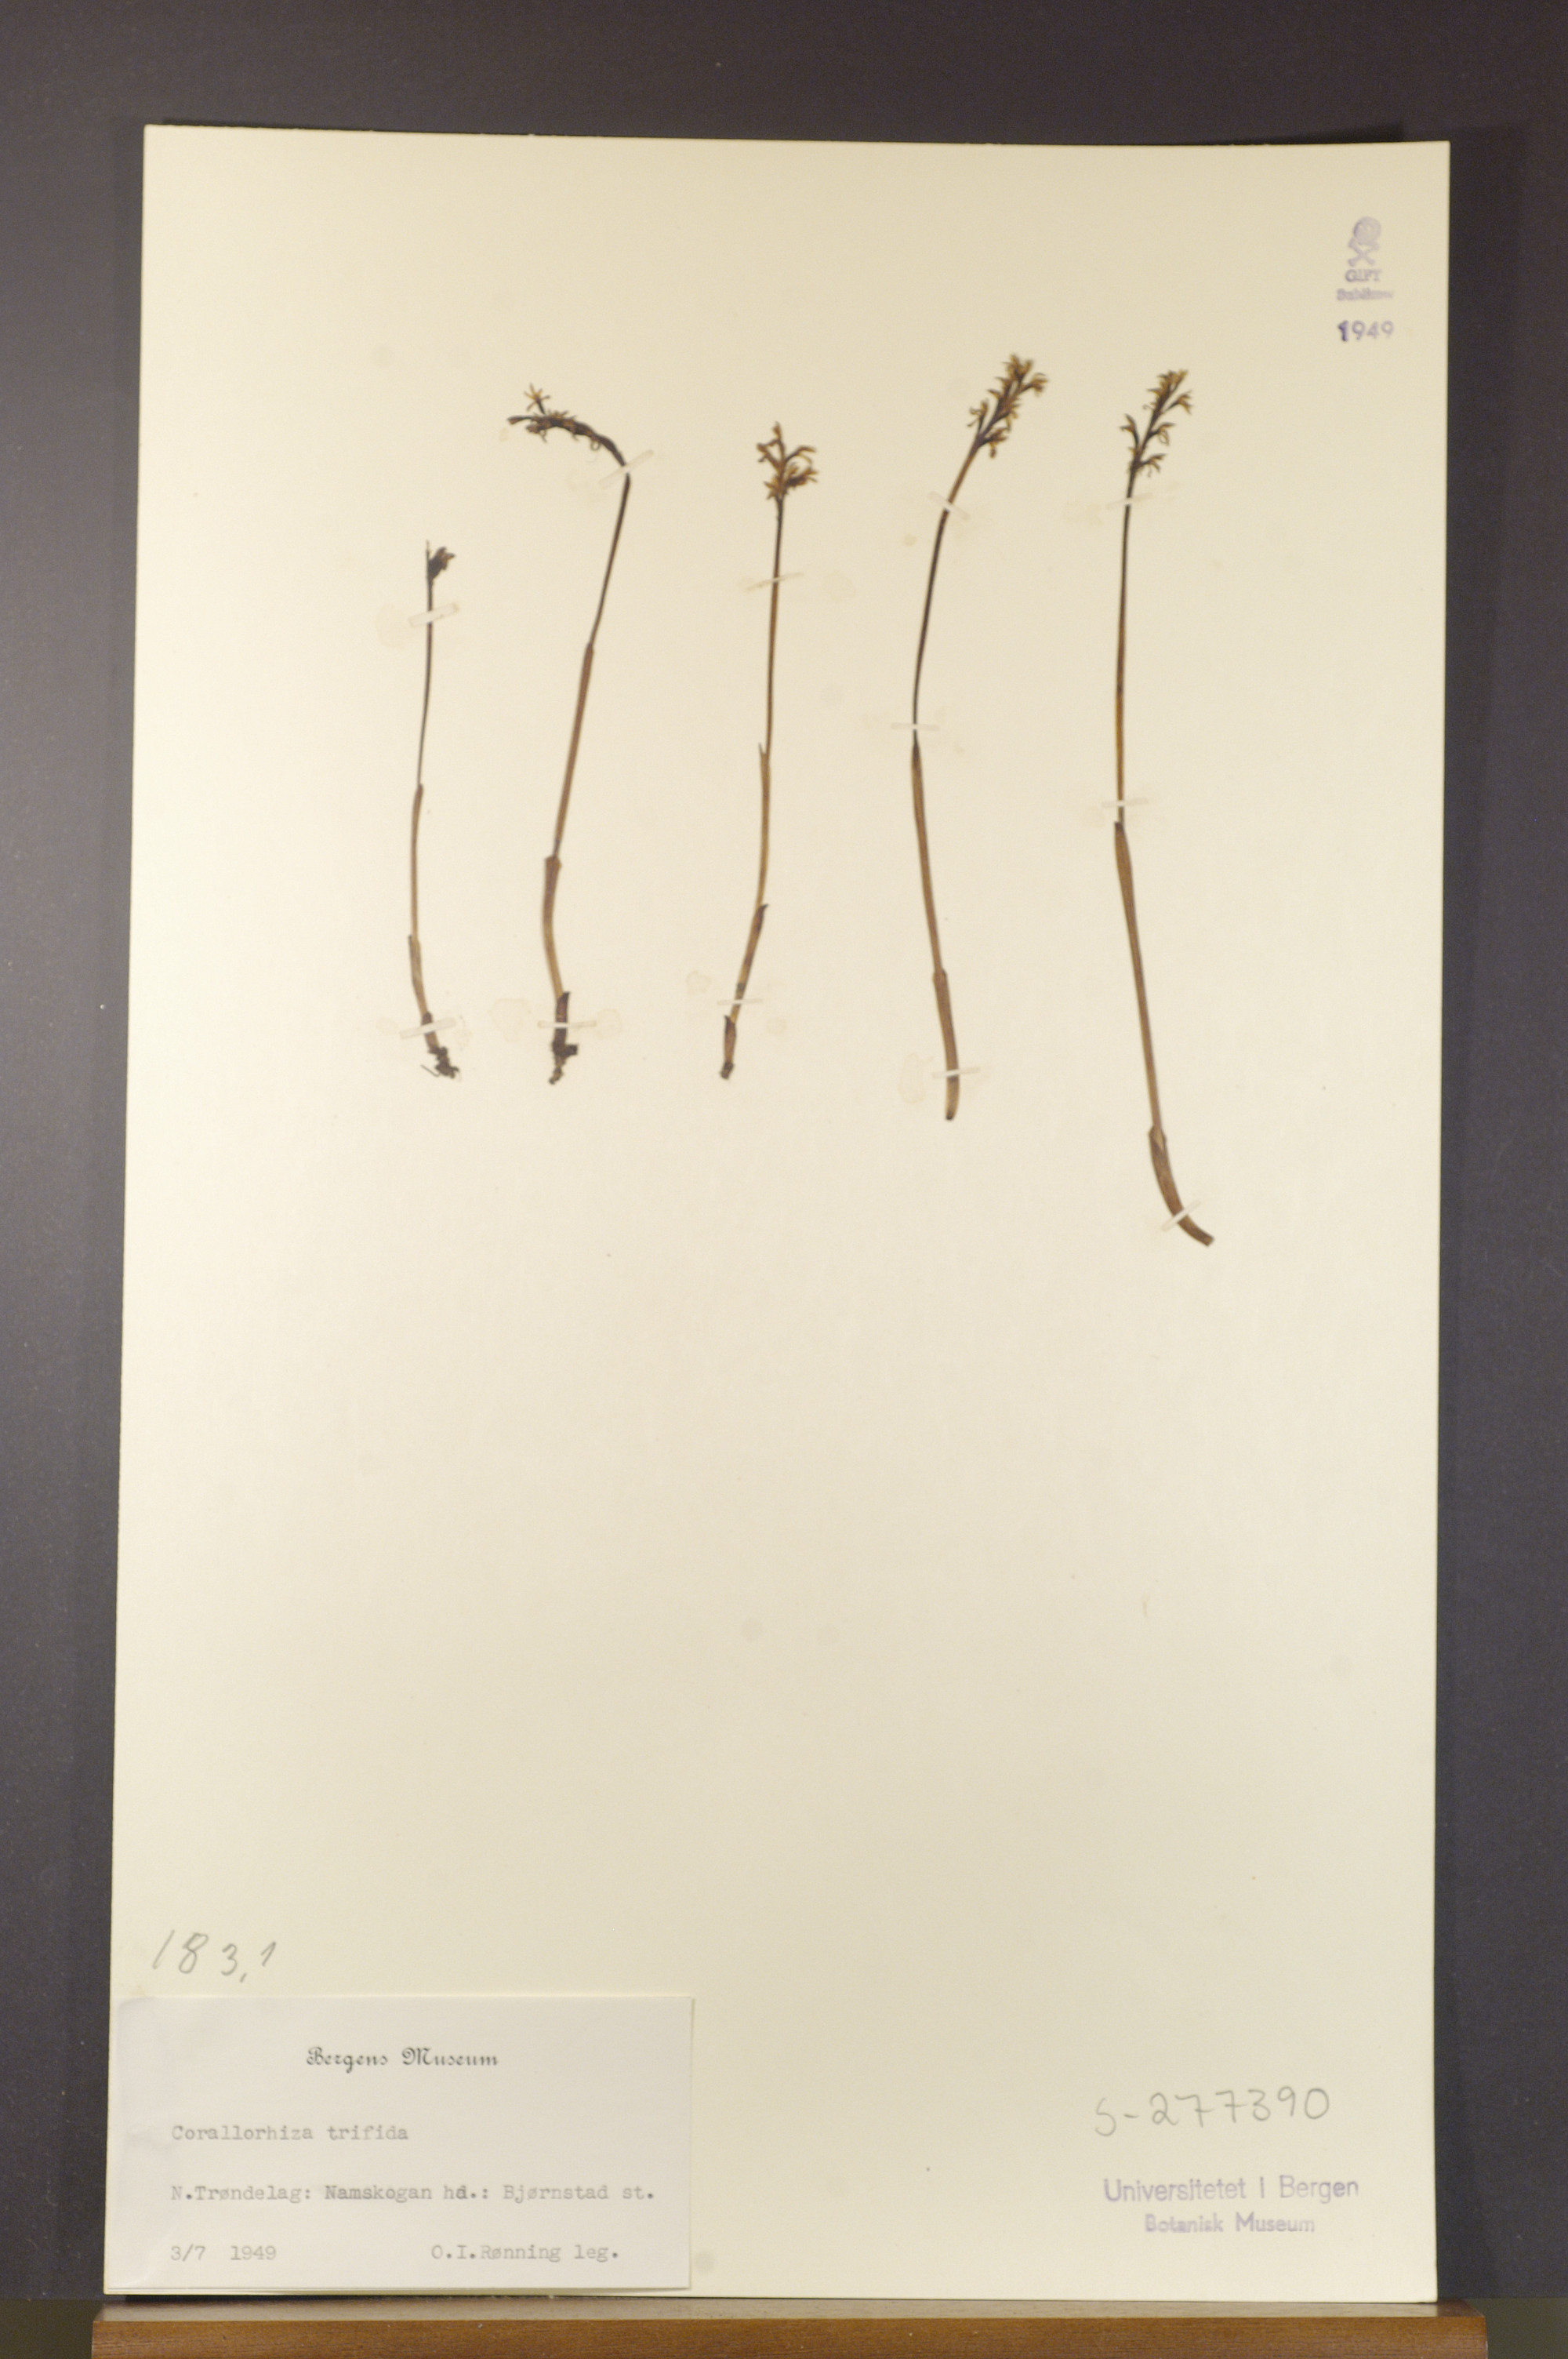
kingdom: Plantae
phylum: Tracheophyta
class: Liliopsida
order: Asparagales
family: Orchidaceae
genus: Corallorhiza
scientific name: Corallorhiza trifida
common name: Yellow coralroot
